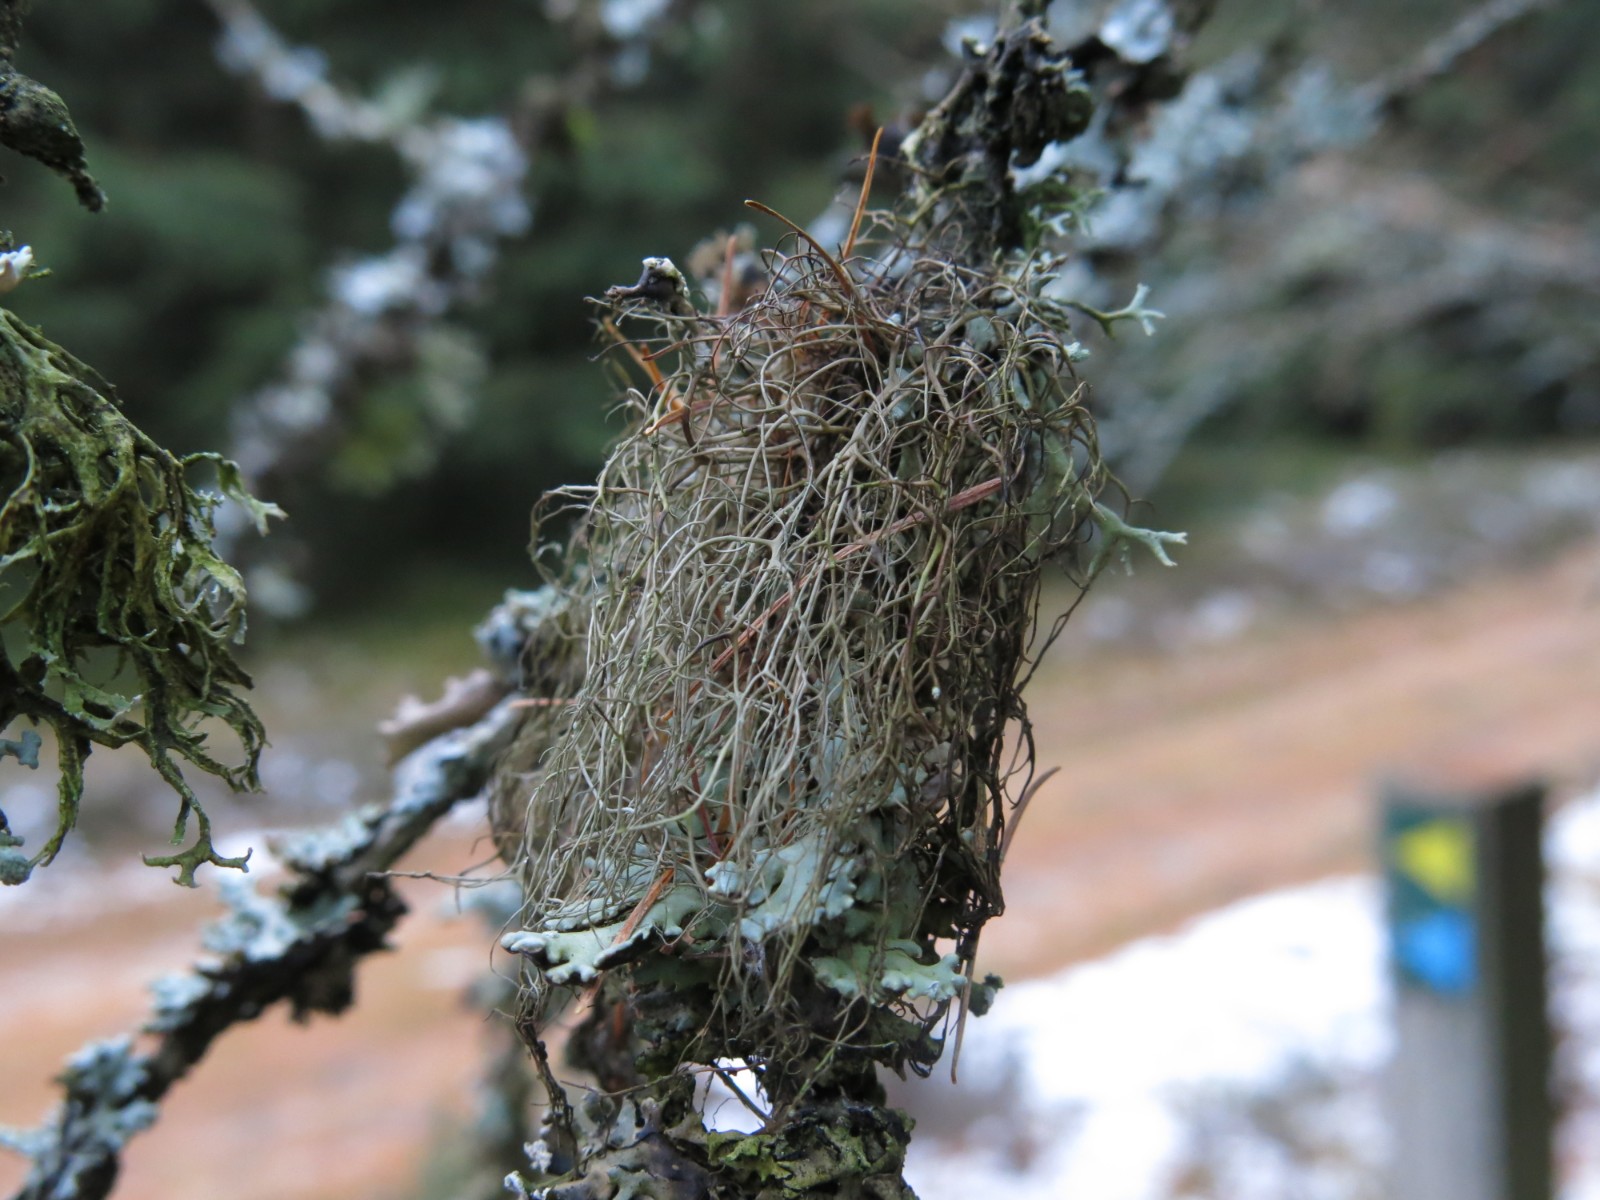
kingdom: Fungi
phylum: Ascomycota
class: Lecanoromycetes
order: Lecanorales
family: Parmeliaceae
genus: Bryoria
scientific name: Bryoria fuscescens
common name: almindelig mankelav
